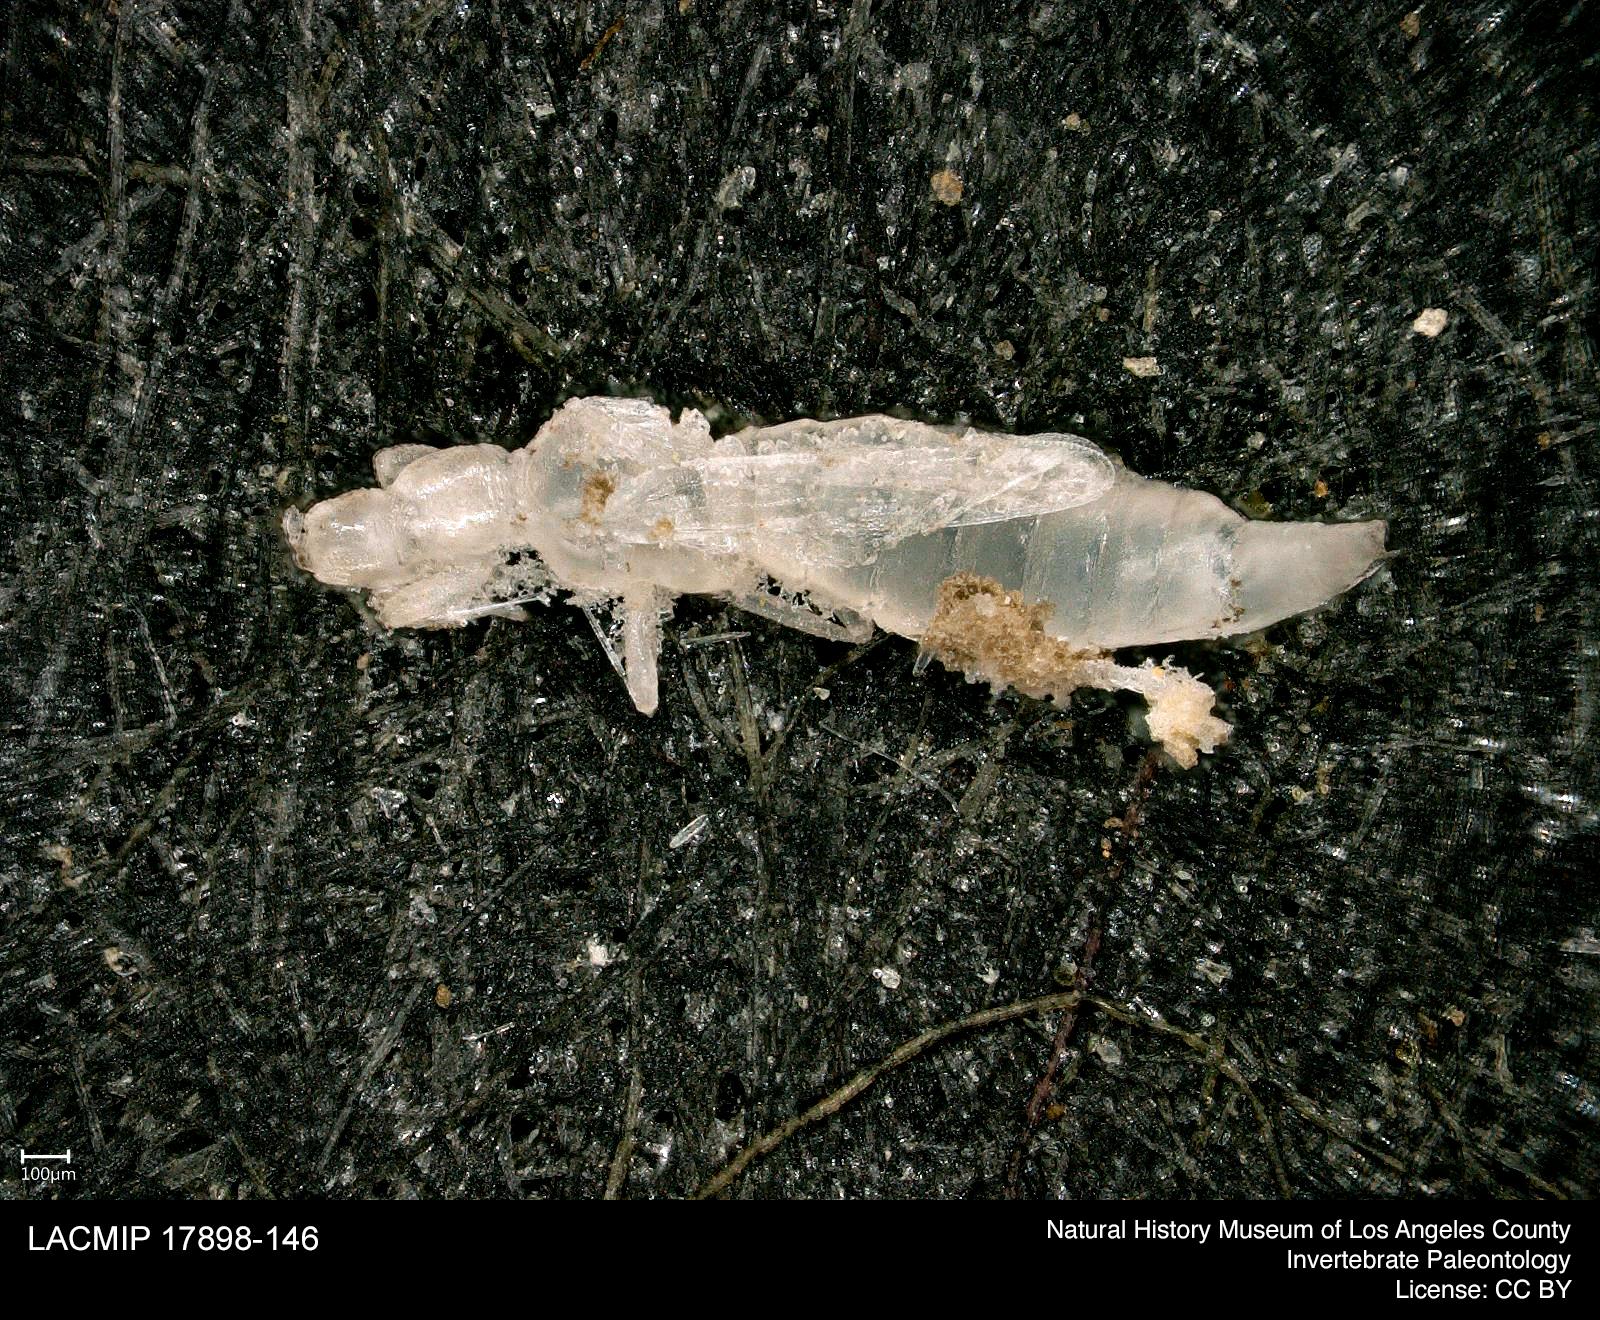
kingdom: Animalia
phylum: Arthropoda
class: Insecta
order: Thysanoptera
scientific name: Thysanoptera
